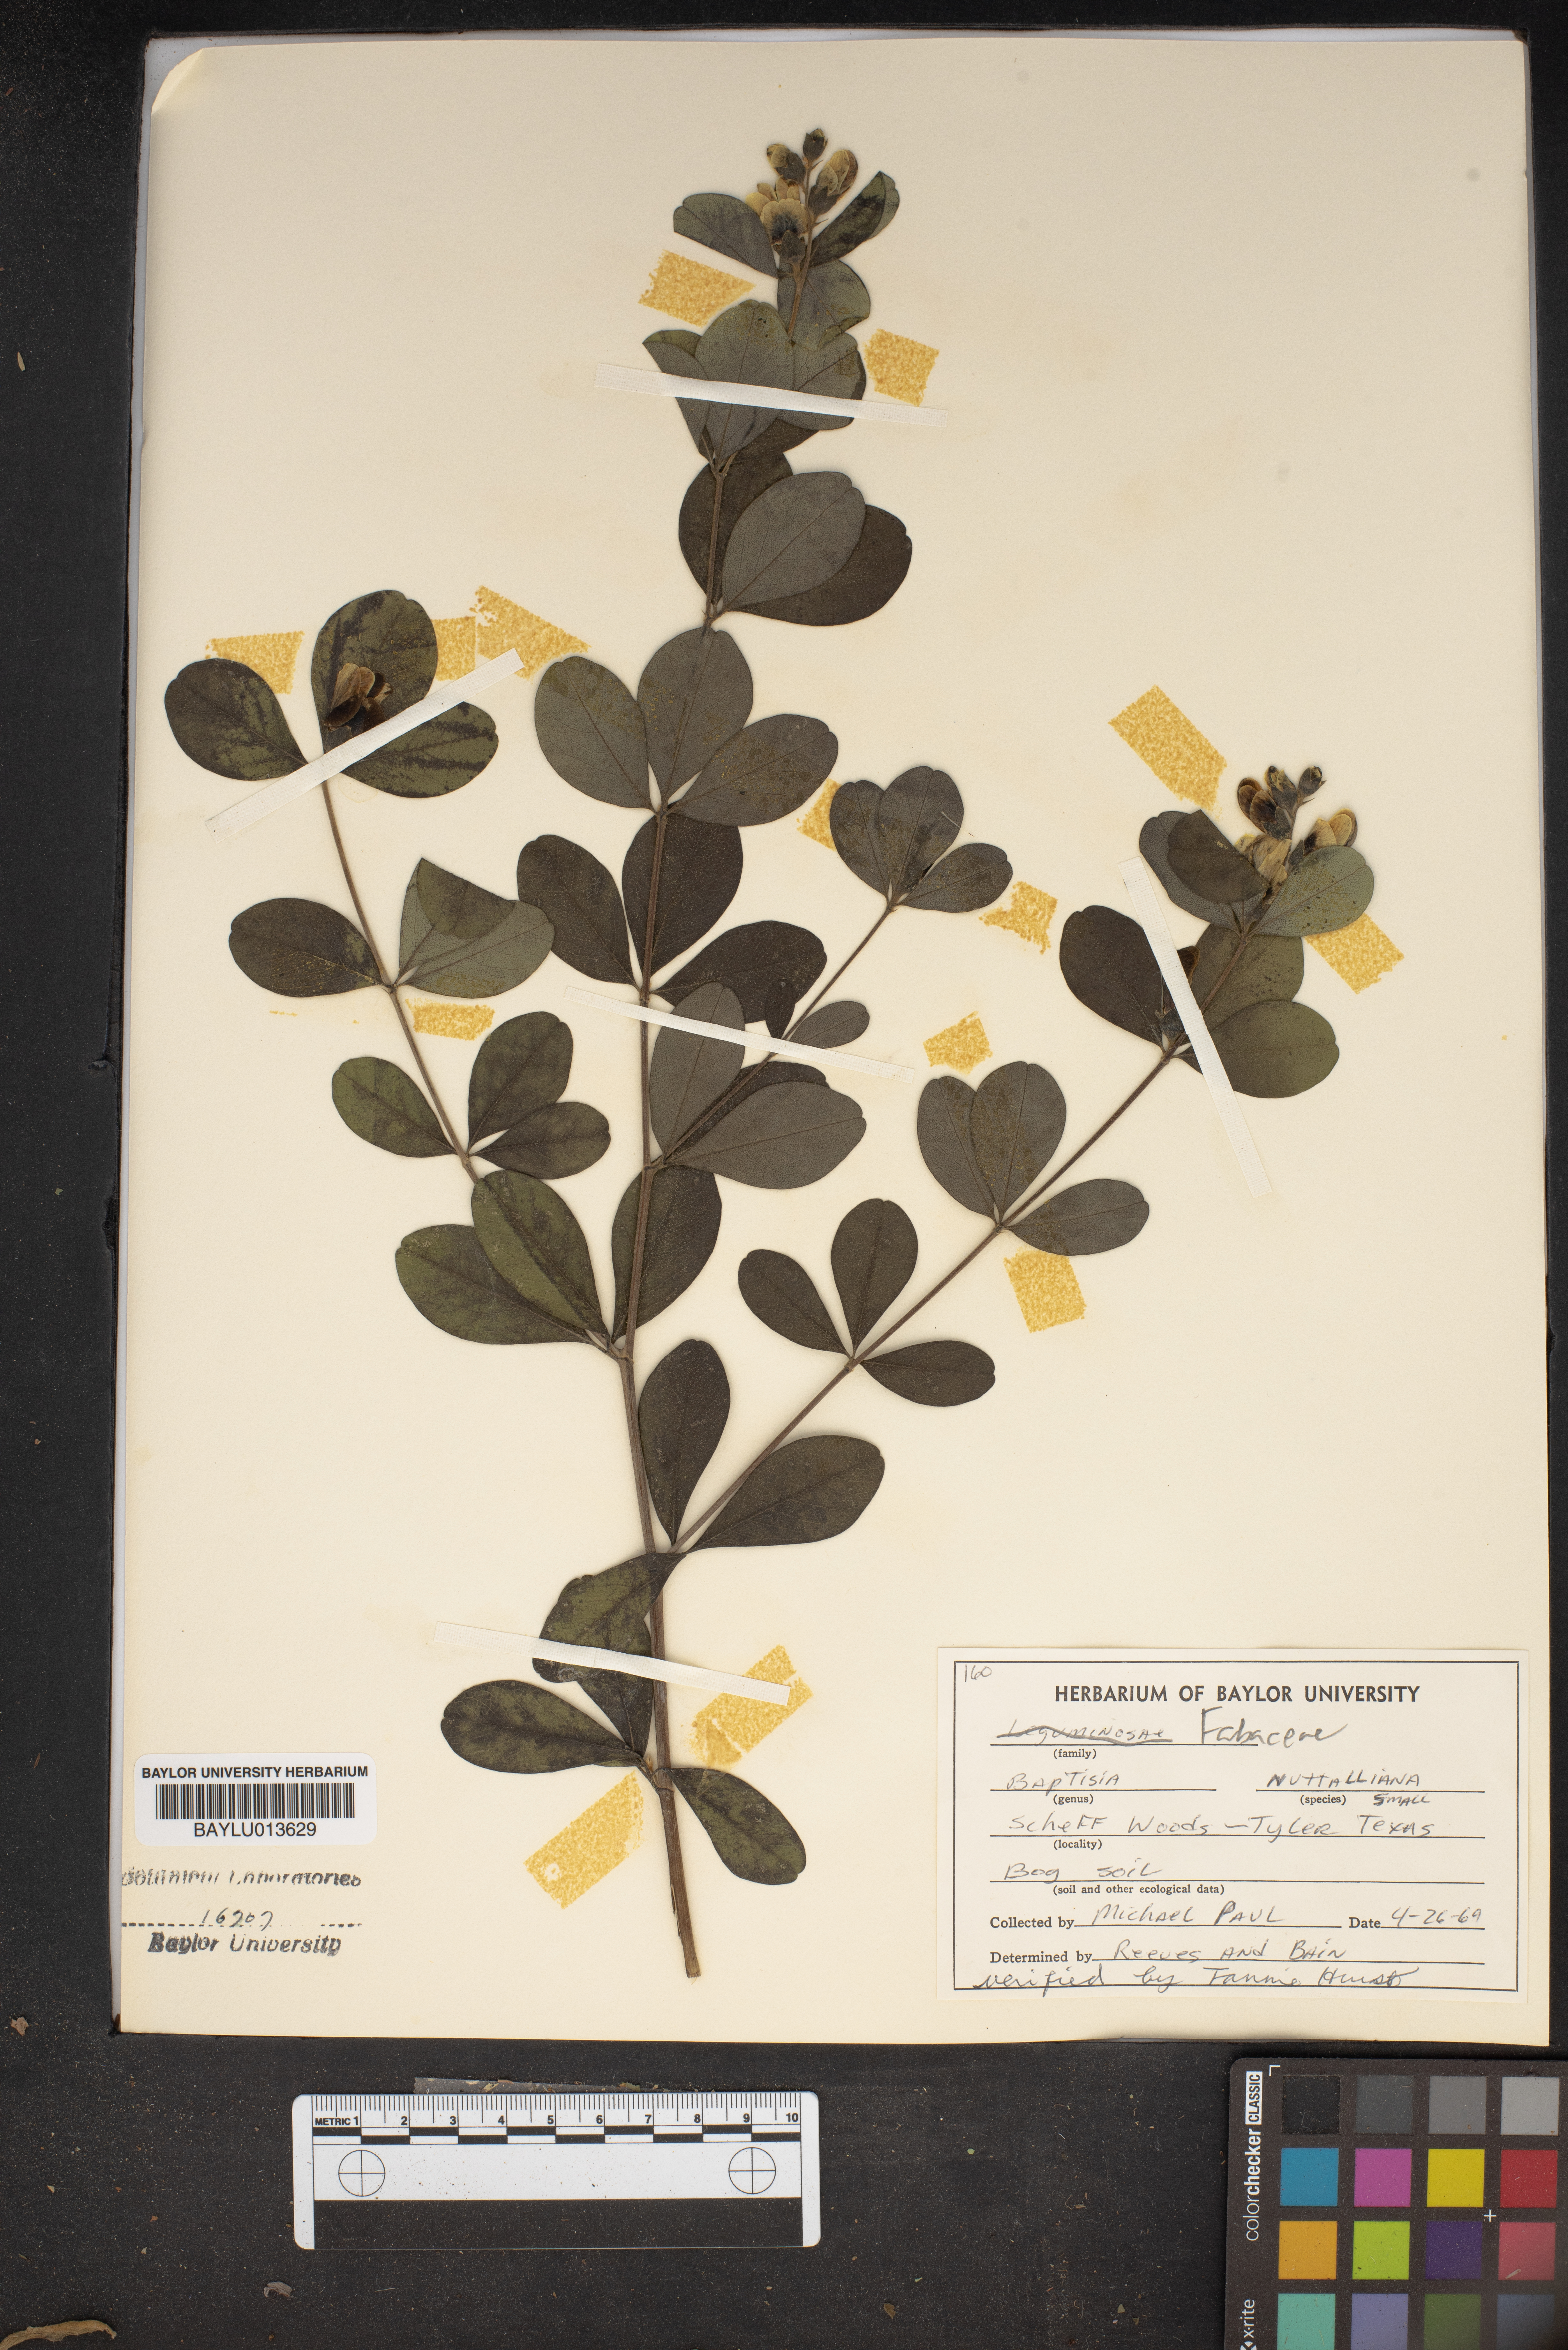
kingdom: Plantae
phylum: Tracheophyta
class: Magnoliopsida
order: Fabales
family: Fabaceae
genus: Baptisia
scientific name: Baptisia nuttalliana
